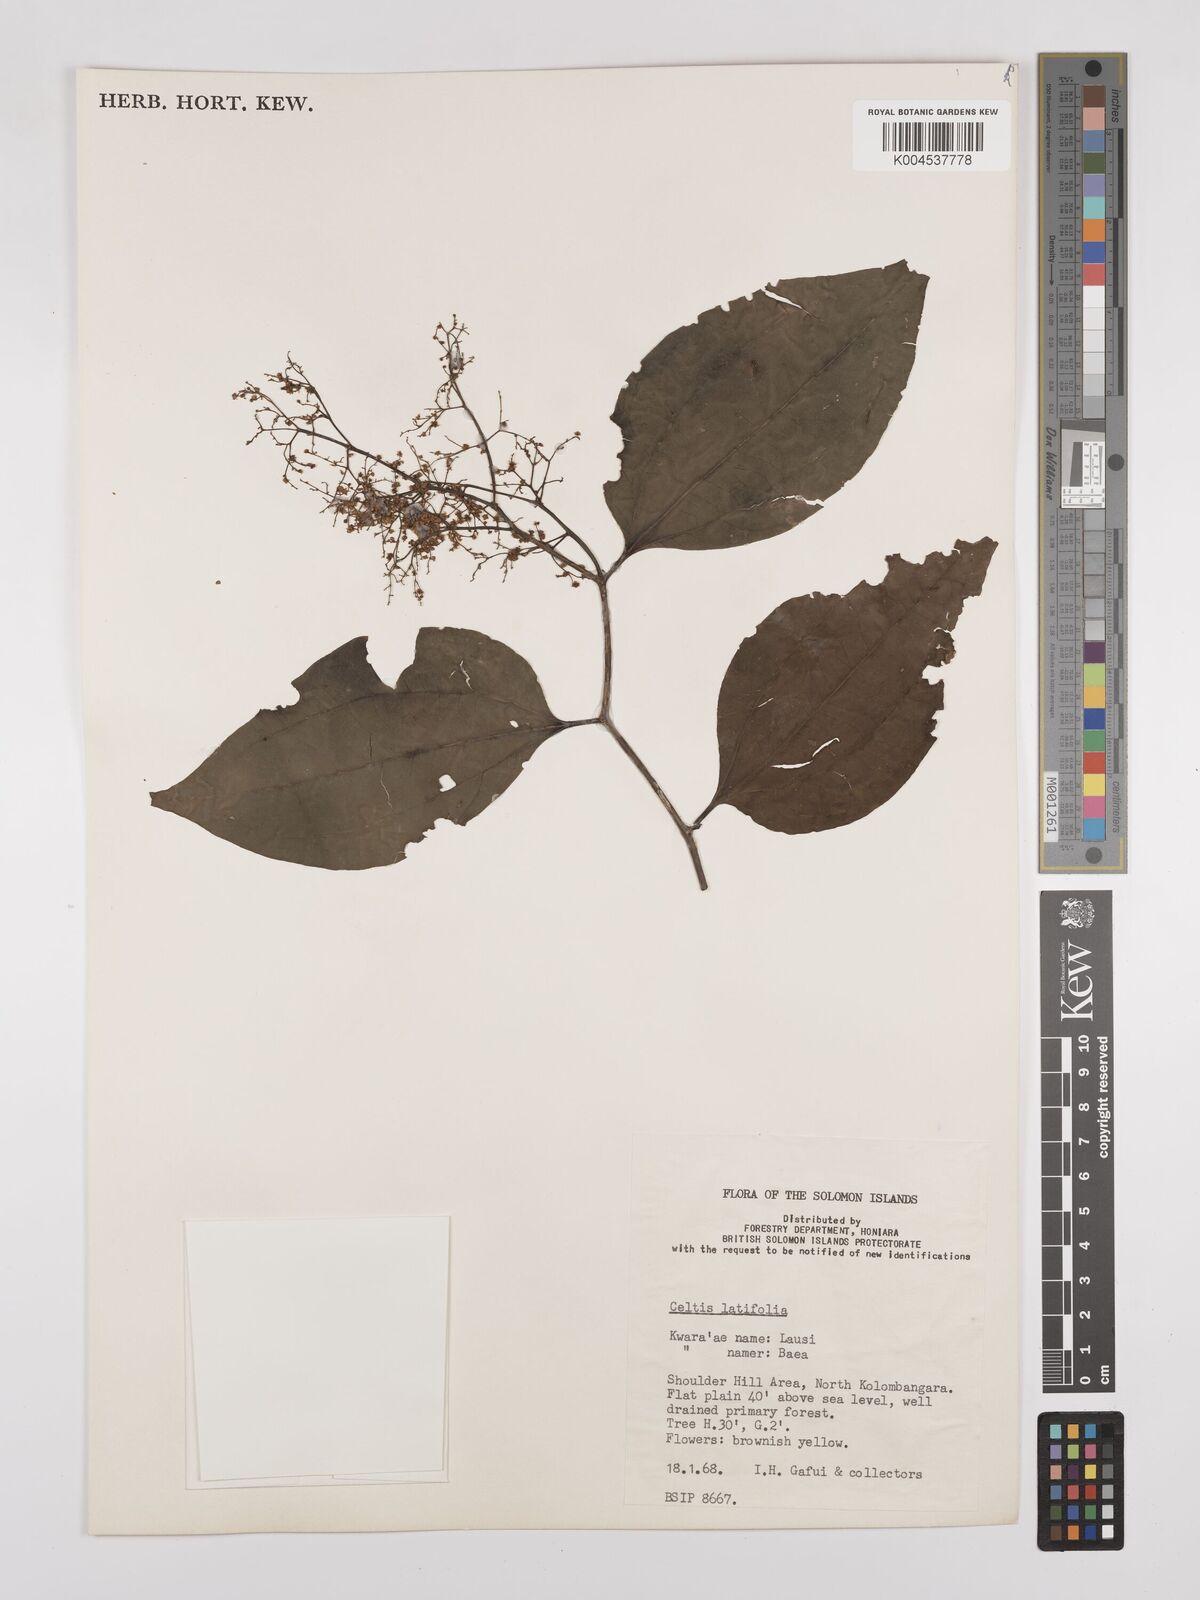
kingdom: Plantae
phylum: Tracheophyta
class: Magnoliopsida
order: Rosales
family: Cannabaceae
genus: Celtis
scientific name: Celtis latifolia
